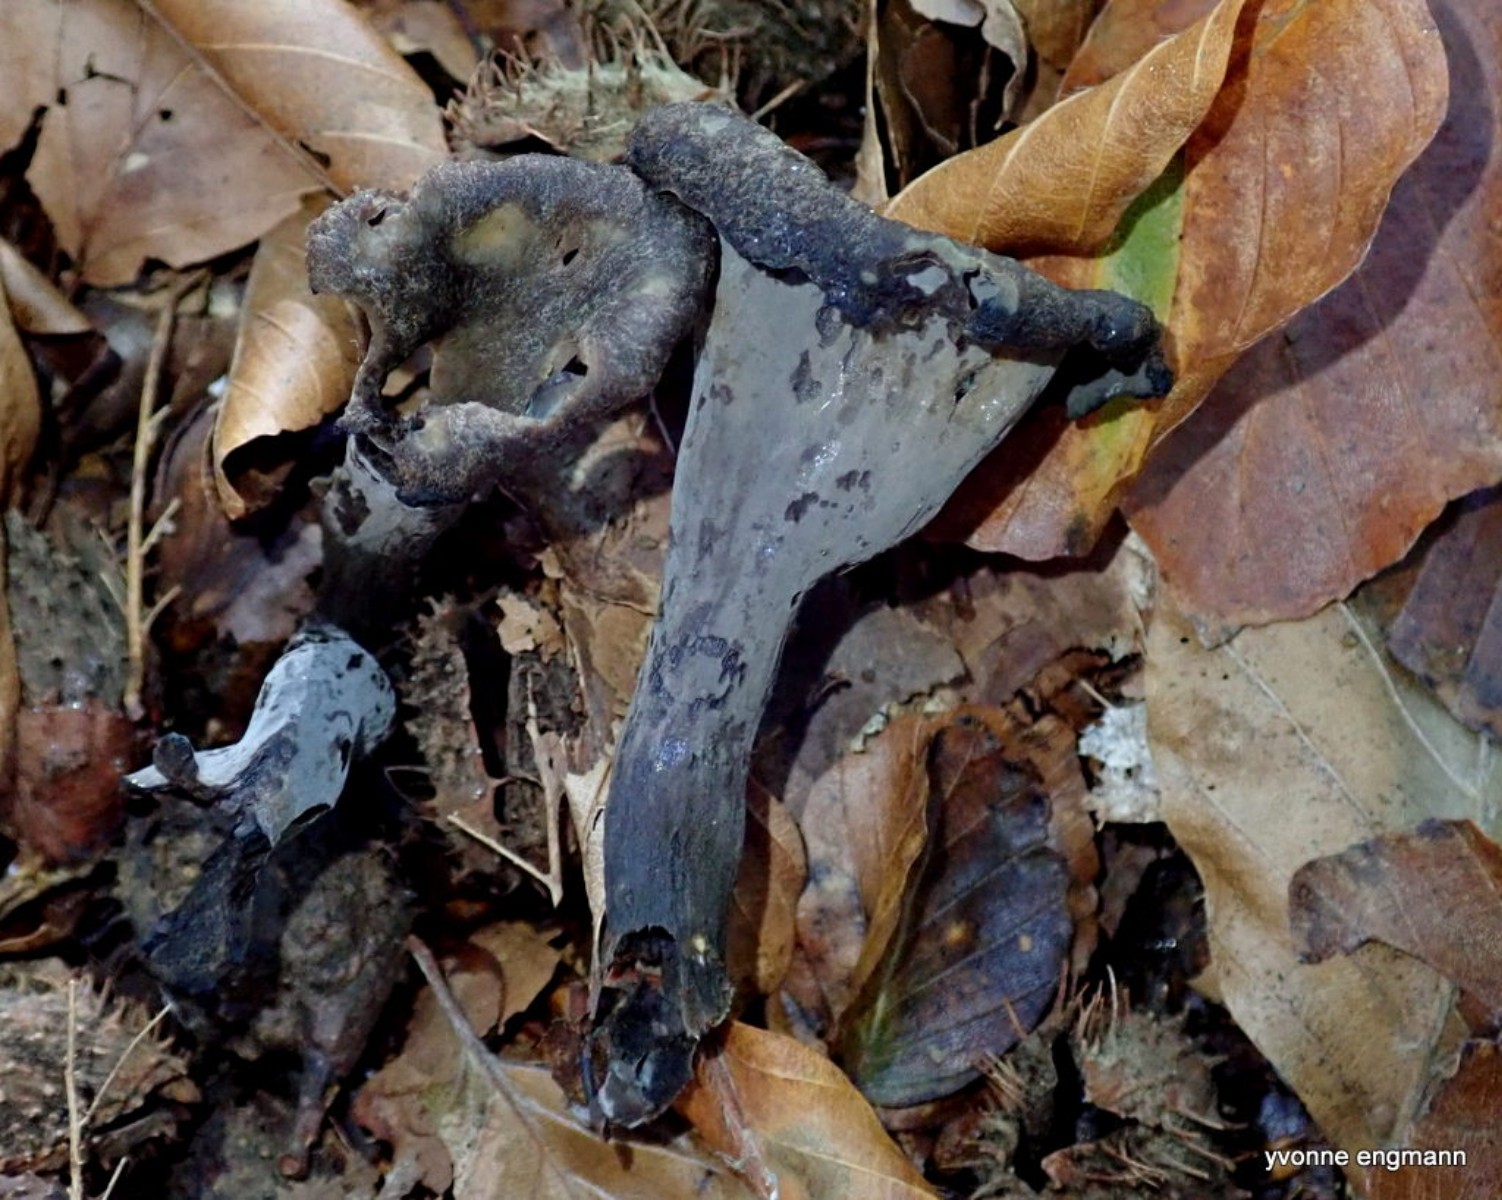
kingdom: Fungi
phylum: Basidiomycota
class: Agaricomycetes
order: Cantharellales
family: Hydnaceae
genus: Craterellus
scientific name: Craterellus cornucopioides
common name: trompetsvamp
